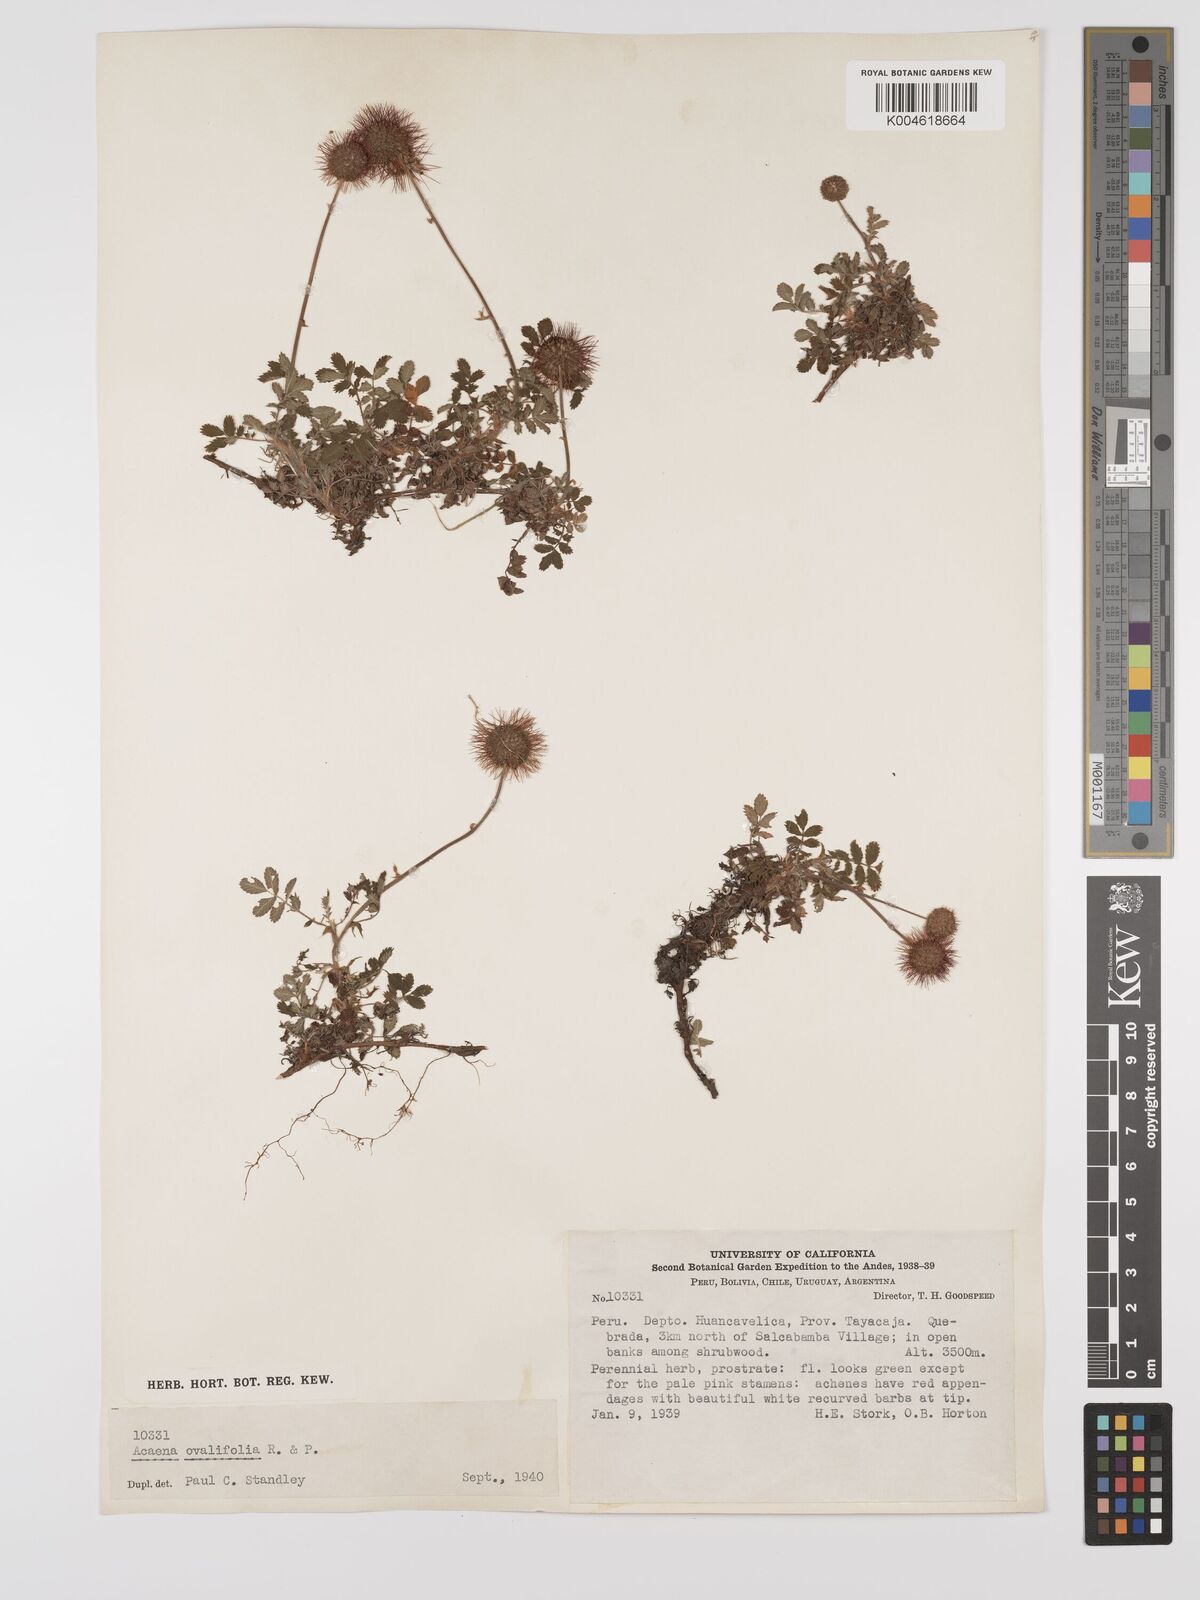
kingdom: Plantae
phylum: Tracheophyta
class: Magnoliopsida
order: Rosales
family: Rosaceae
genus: Acaena
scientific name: Acaena ovalifolia
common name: Two-spined acaena
